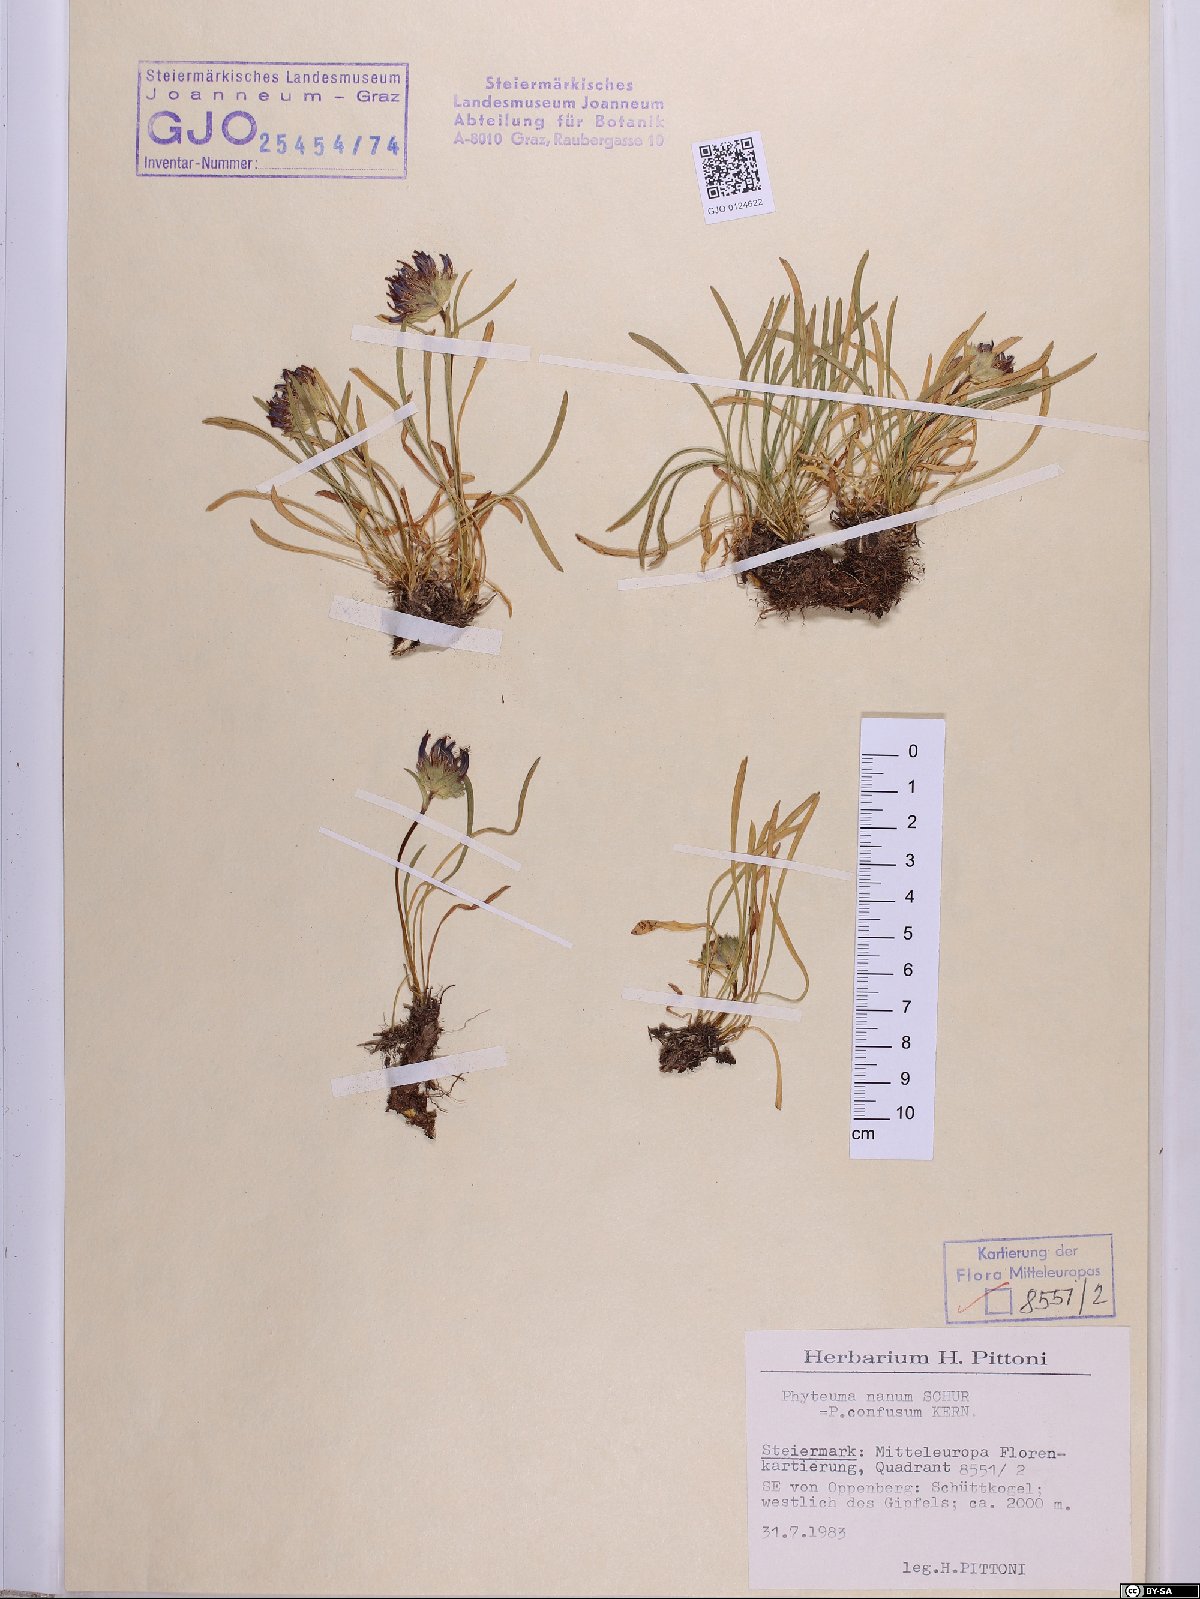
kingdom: Plantae
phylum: Tracheophyta
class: Magnoliopsida
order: Asterales
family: Campanulaceae
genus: Phyteuma
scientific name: Phyteuma confusum
